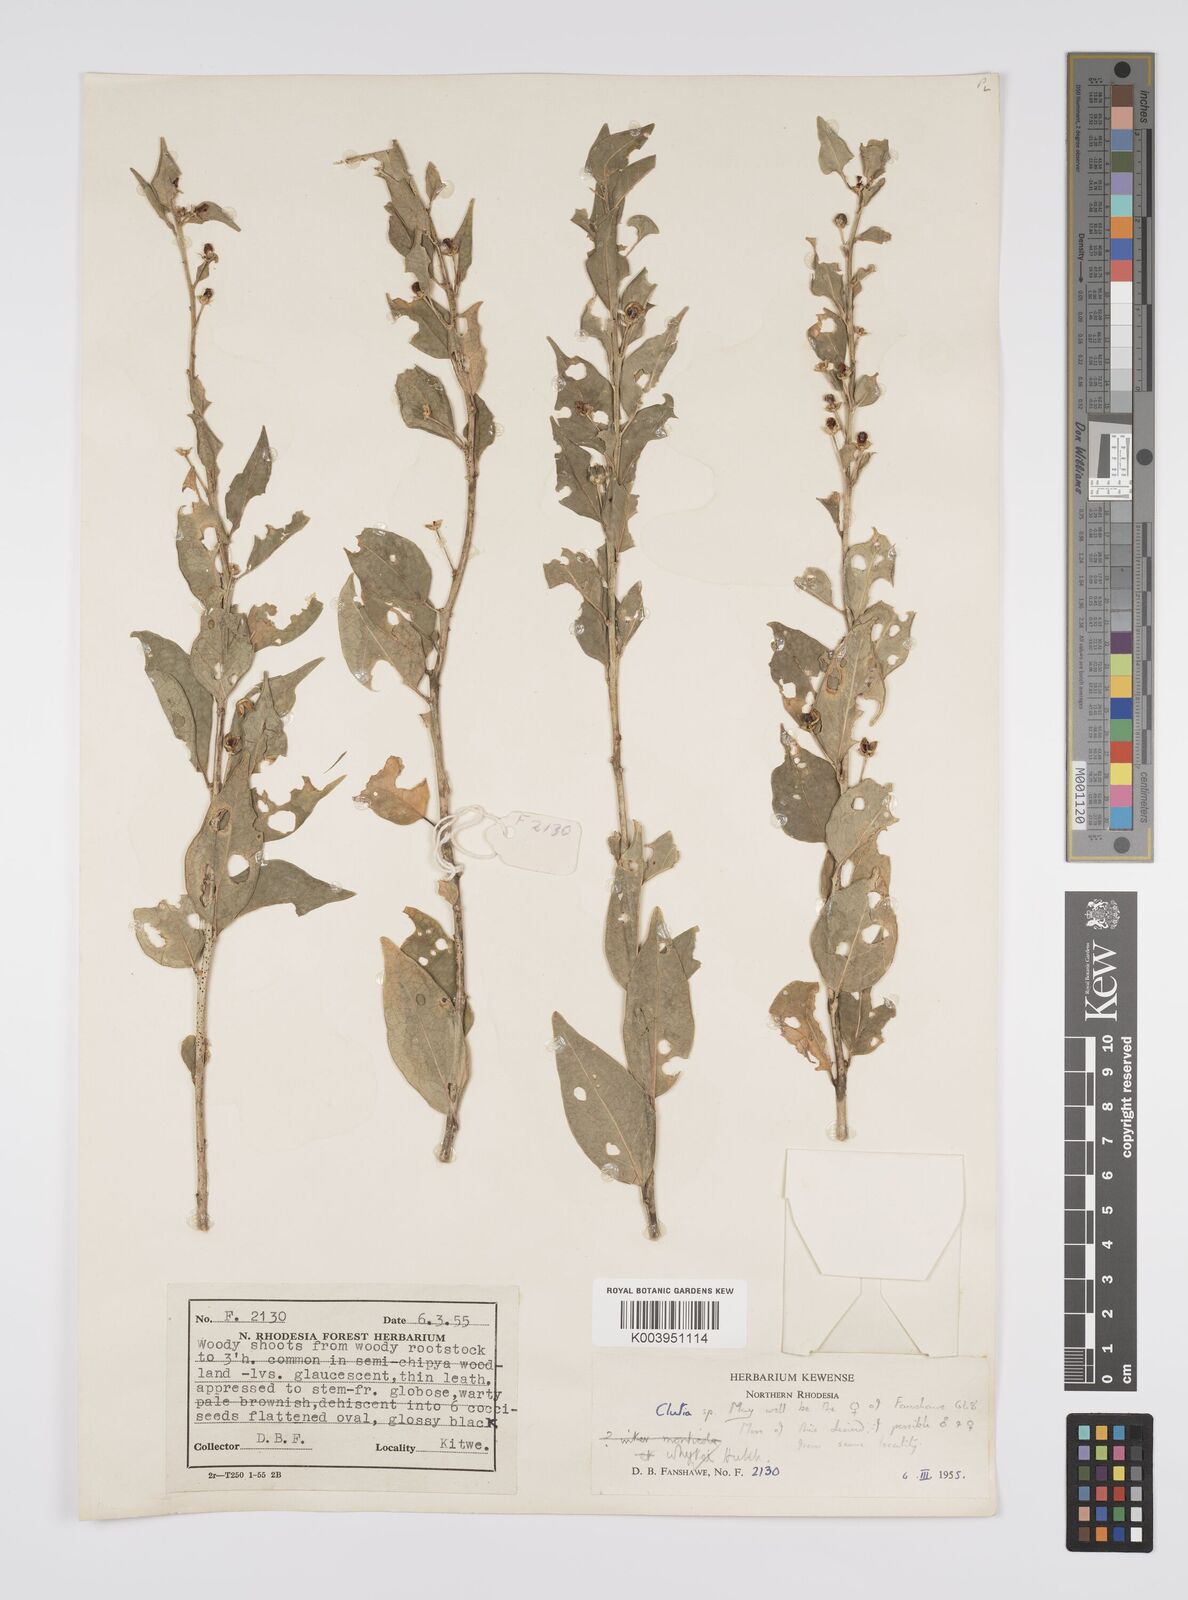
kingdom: Plantae
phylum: Tracheophyta
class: Magnoliopsida
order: Malpighiales
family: Peraceae
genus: Clutia
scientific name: Clutia
